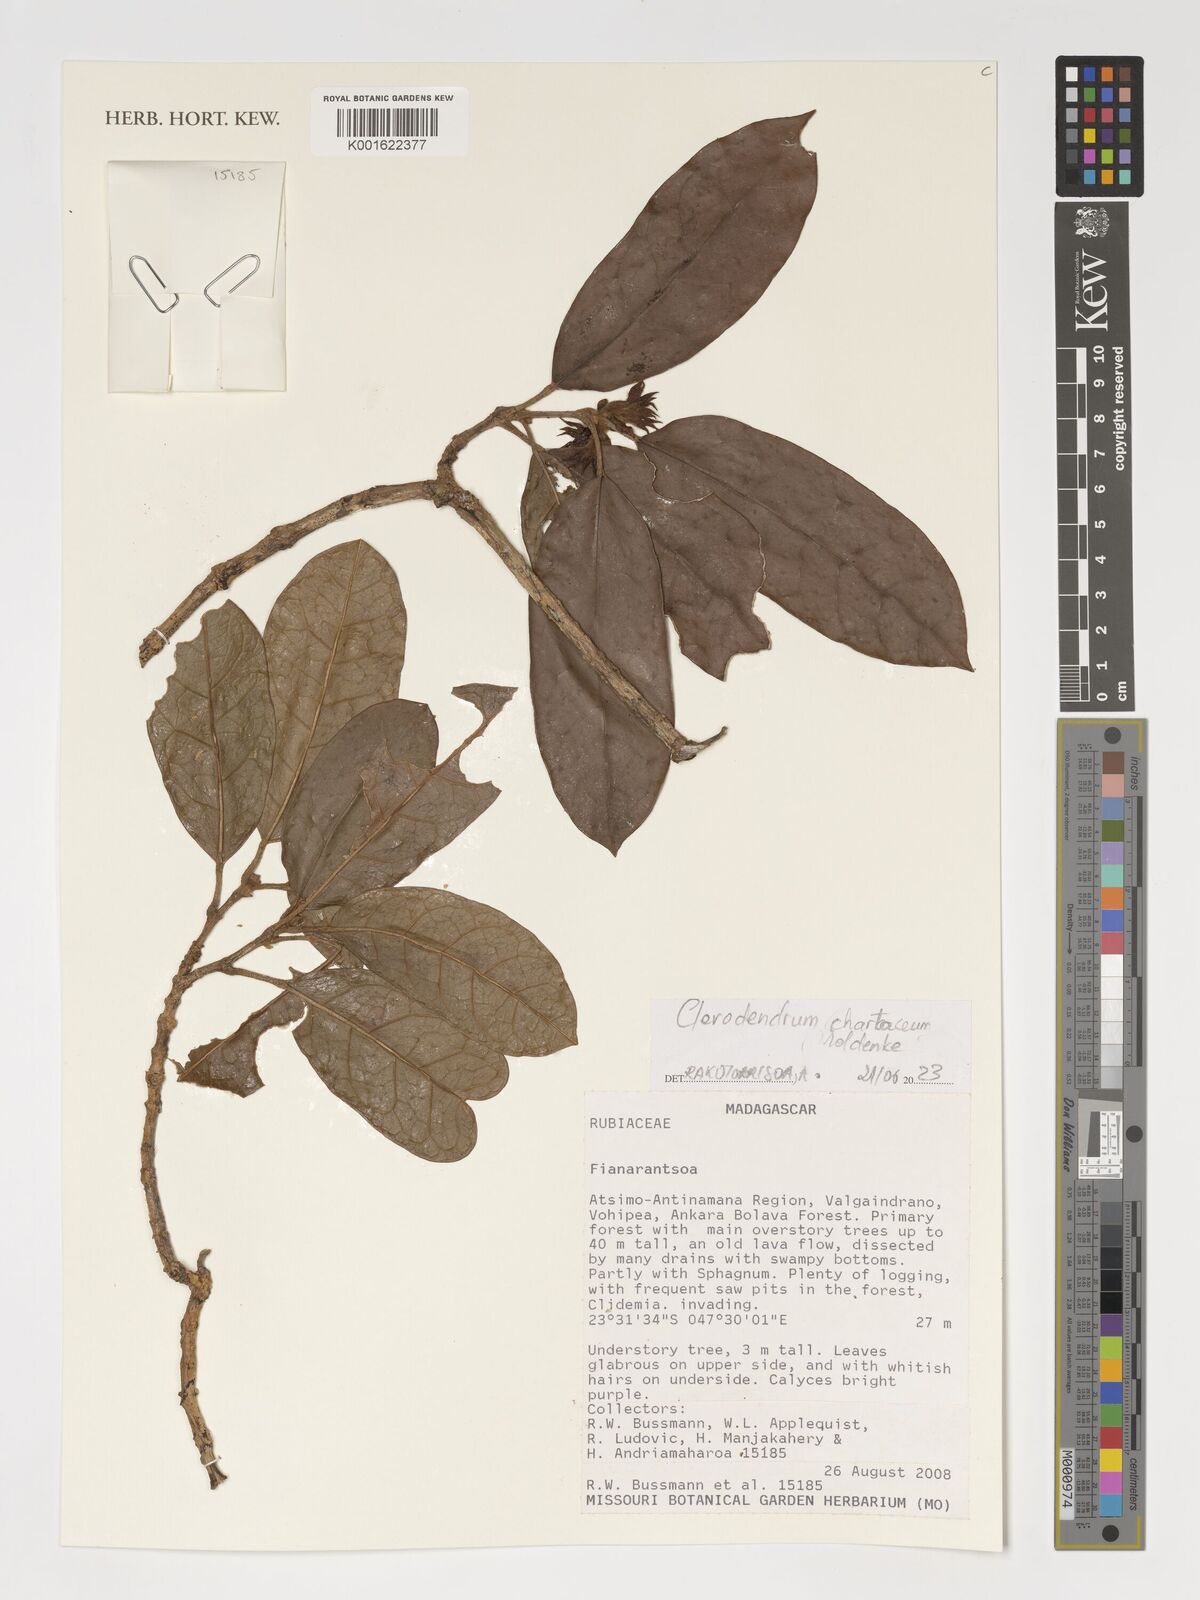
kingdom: Plantae
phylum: Tracheophyta
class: Magnoliopsida
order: Lamiales
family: Lamiaceae
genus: Clerodendrum
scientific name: Clerodendrum chartaceum
